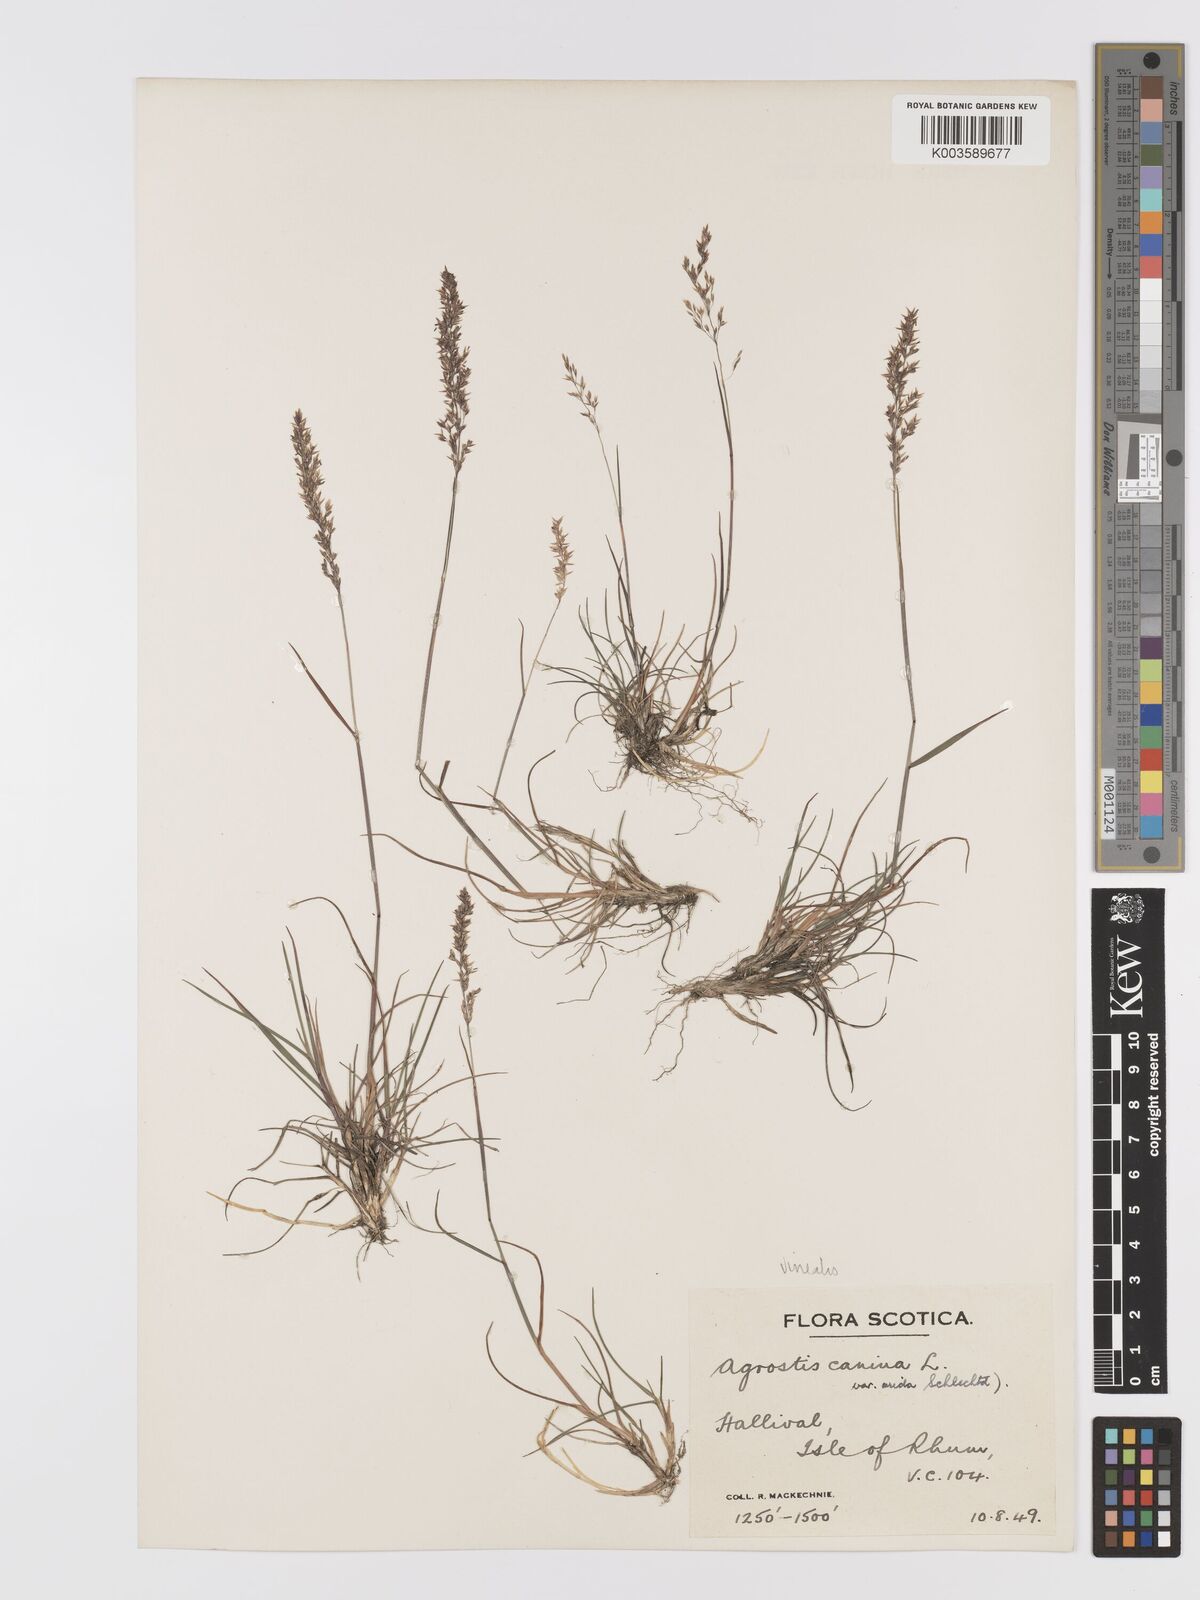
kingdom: Plantae
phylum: Tracheophyta
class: Liliopsida
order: Poales
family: Poaceae
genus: Agrostis
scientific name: Agrostis
